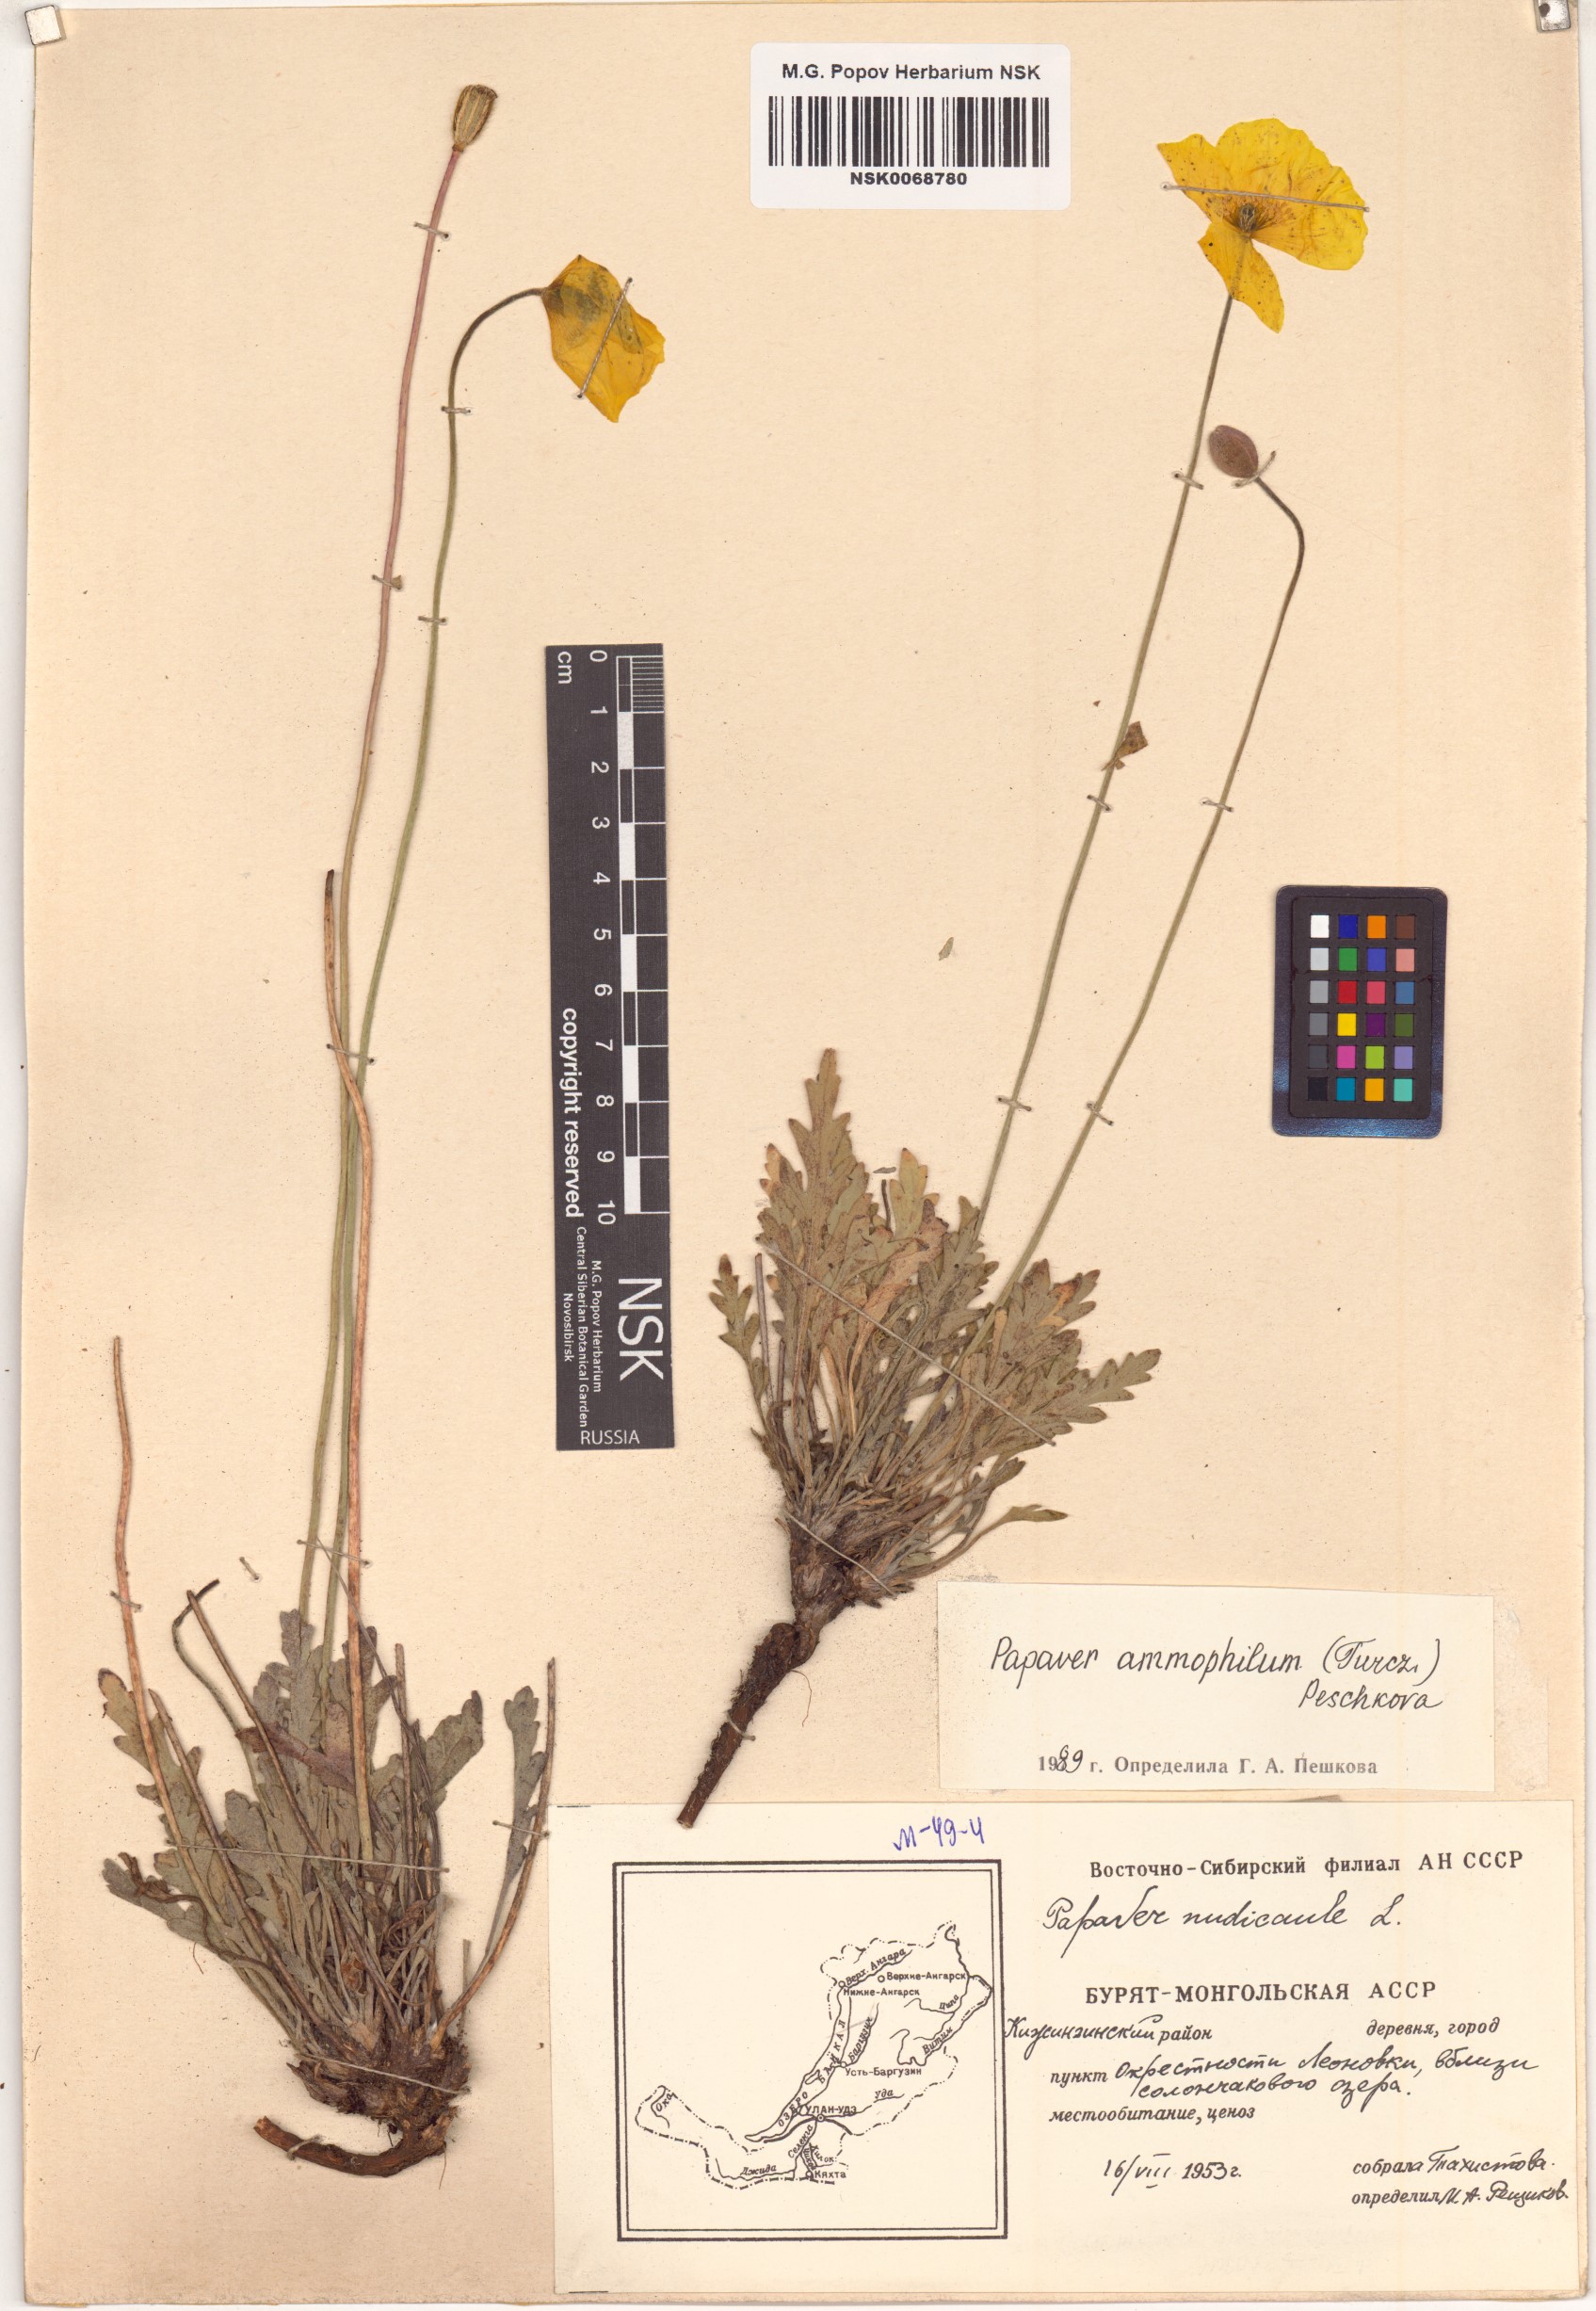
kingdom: Plantae
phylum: Tracheophyta
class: Magnoliopsida
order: Ranunculales
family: Papaveraceae
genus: Papaver
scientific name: Papaver nudicaule
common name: Arctic poppy
